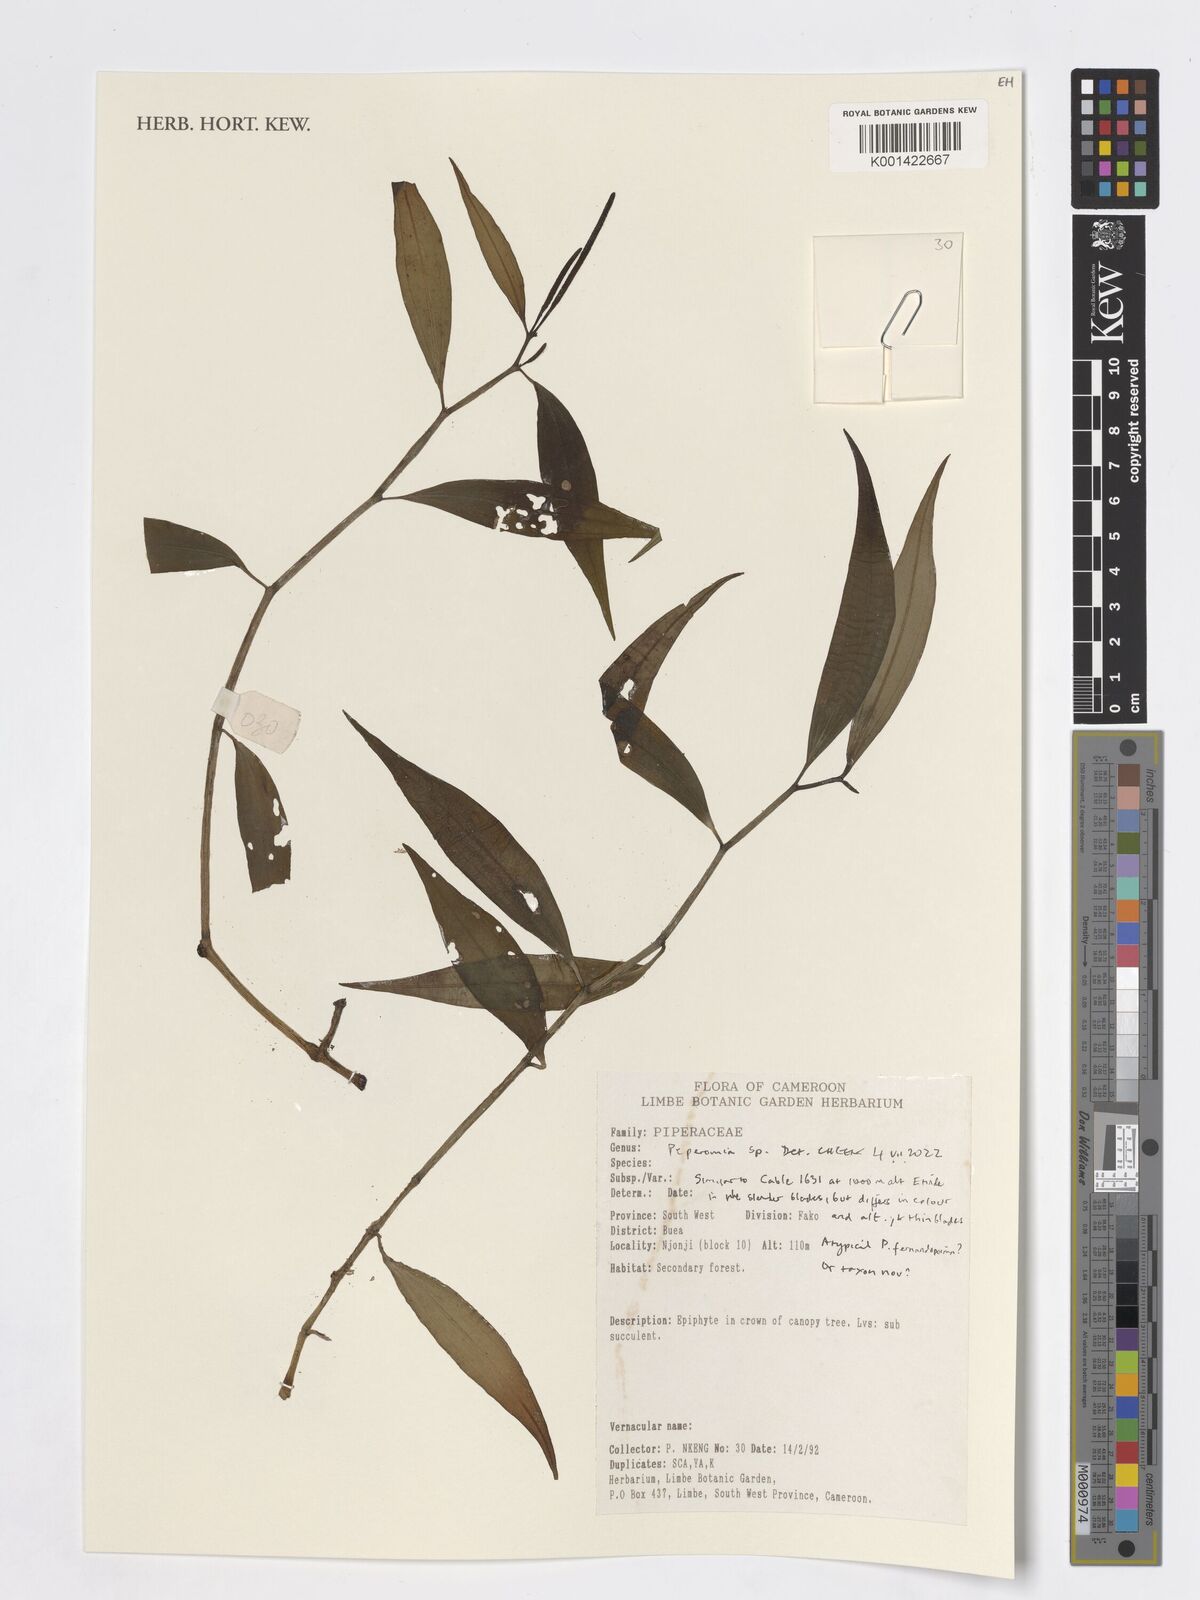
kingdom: Plantae
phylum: Tracheophyta
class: Magnoliopsida
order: Piperales
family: Piperaceae
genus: Peperomia
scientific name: Peperomia
